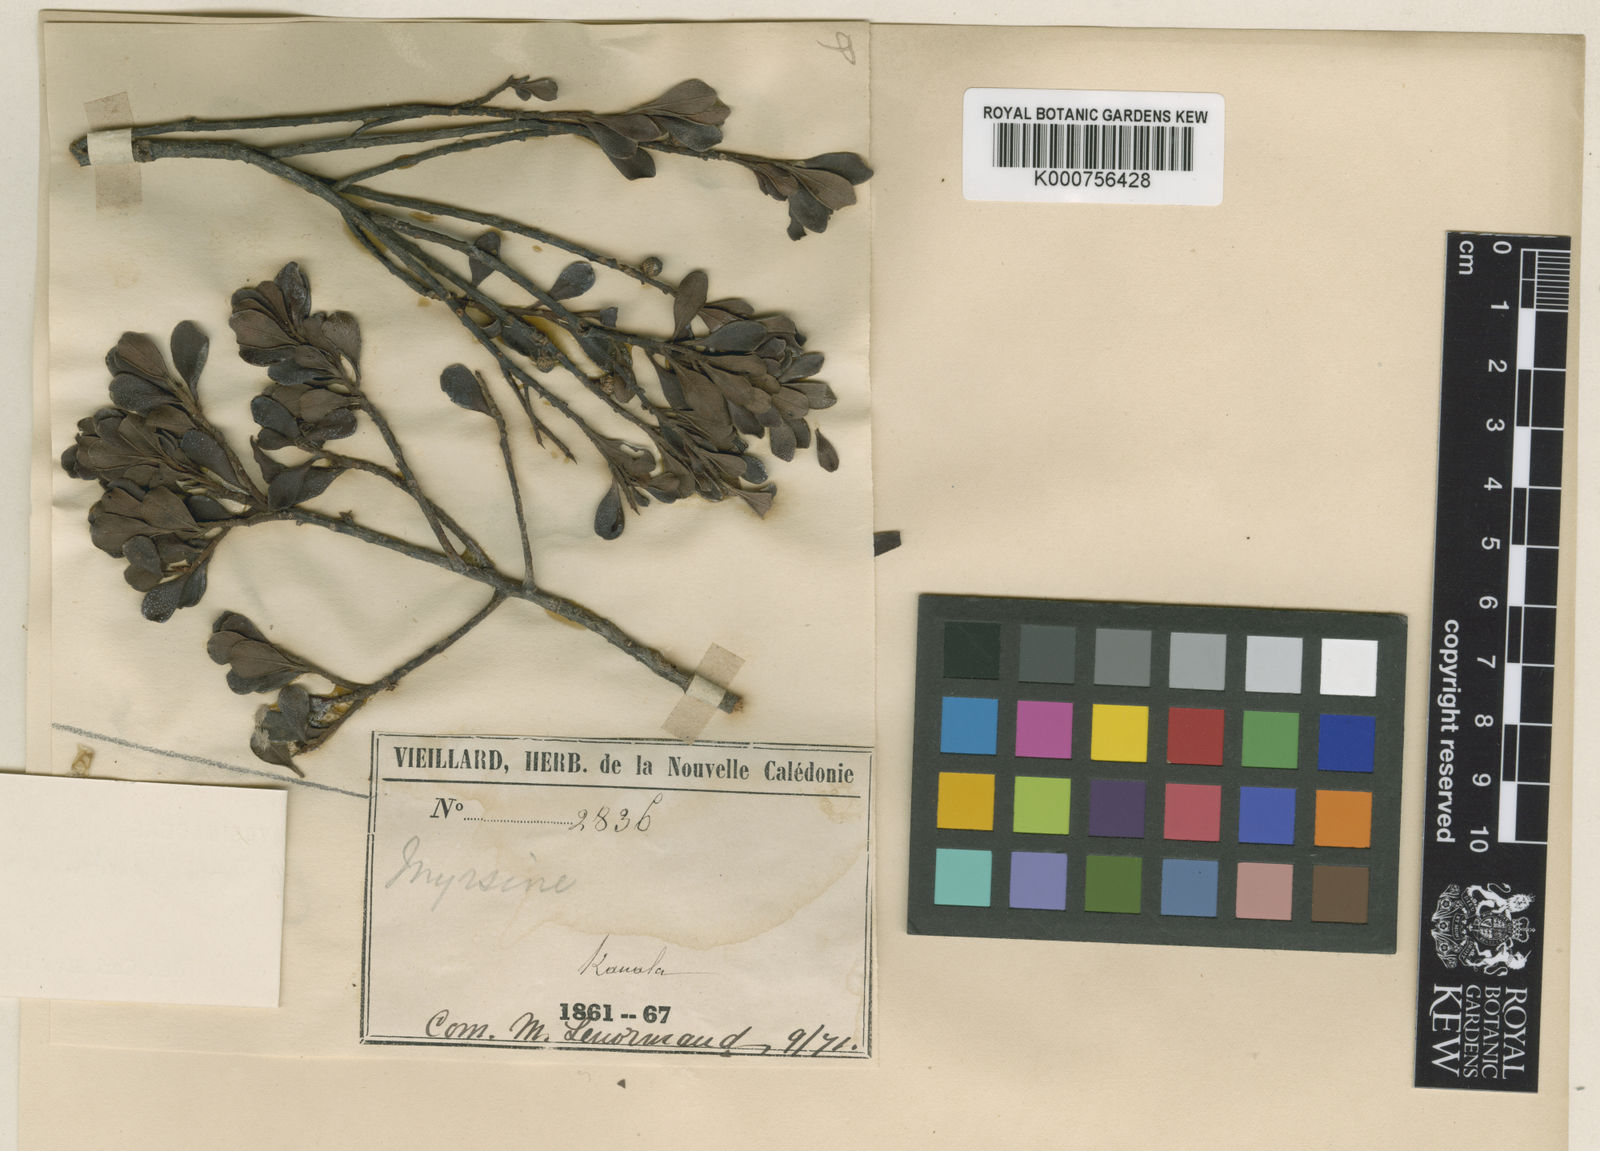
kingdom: Plantae
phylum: Tracheophyta
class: Magnoliopsida
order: Ericales
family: Primulaceae
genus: Myrsine
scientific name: Myrsine novocaledonica
